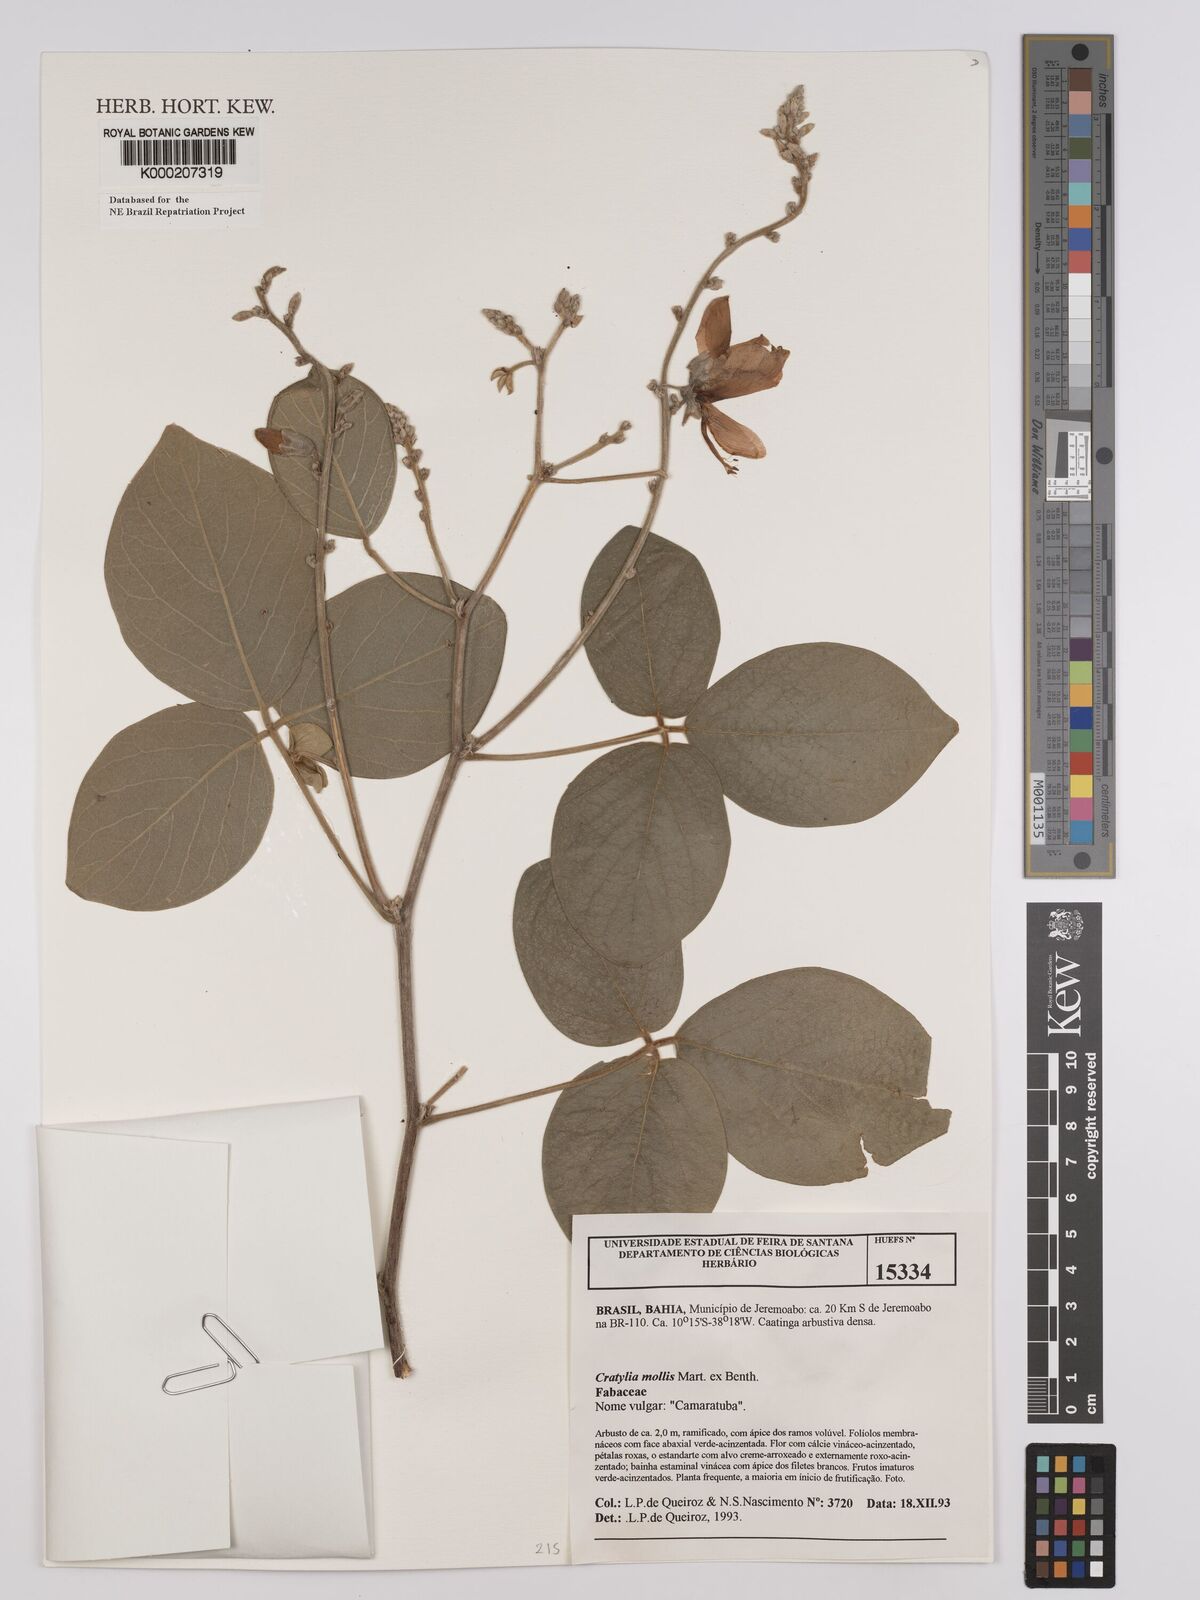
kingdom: Plantae
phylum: Tracheophyta
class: Magnoliopsida
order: Fabales
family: Fabaceae
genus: Cratylia
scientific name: Cratylia mollis
